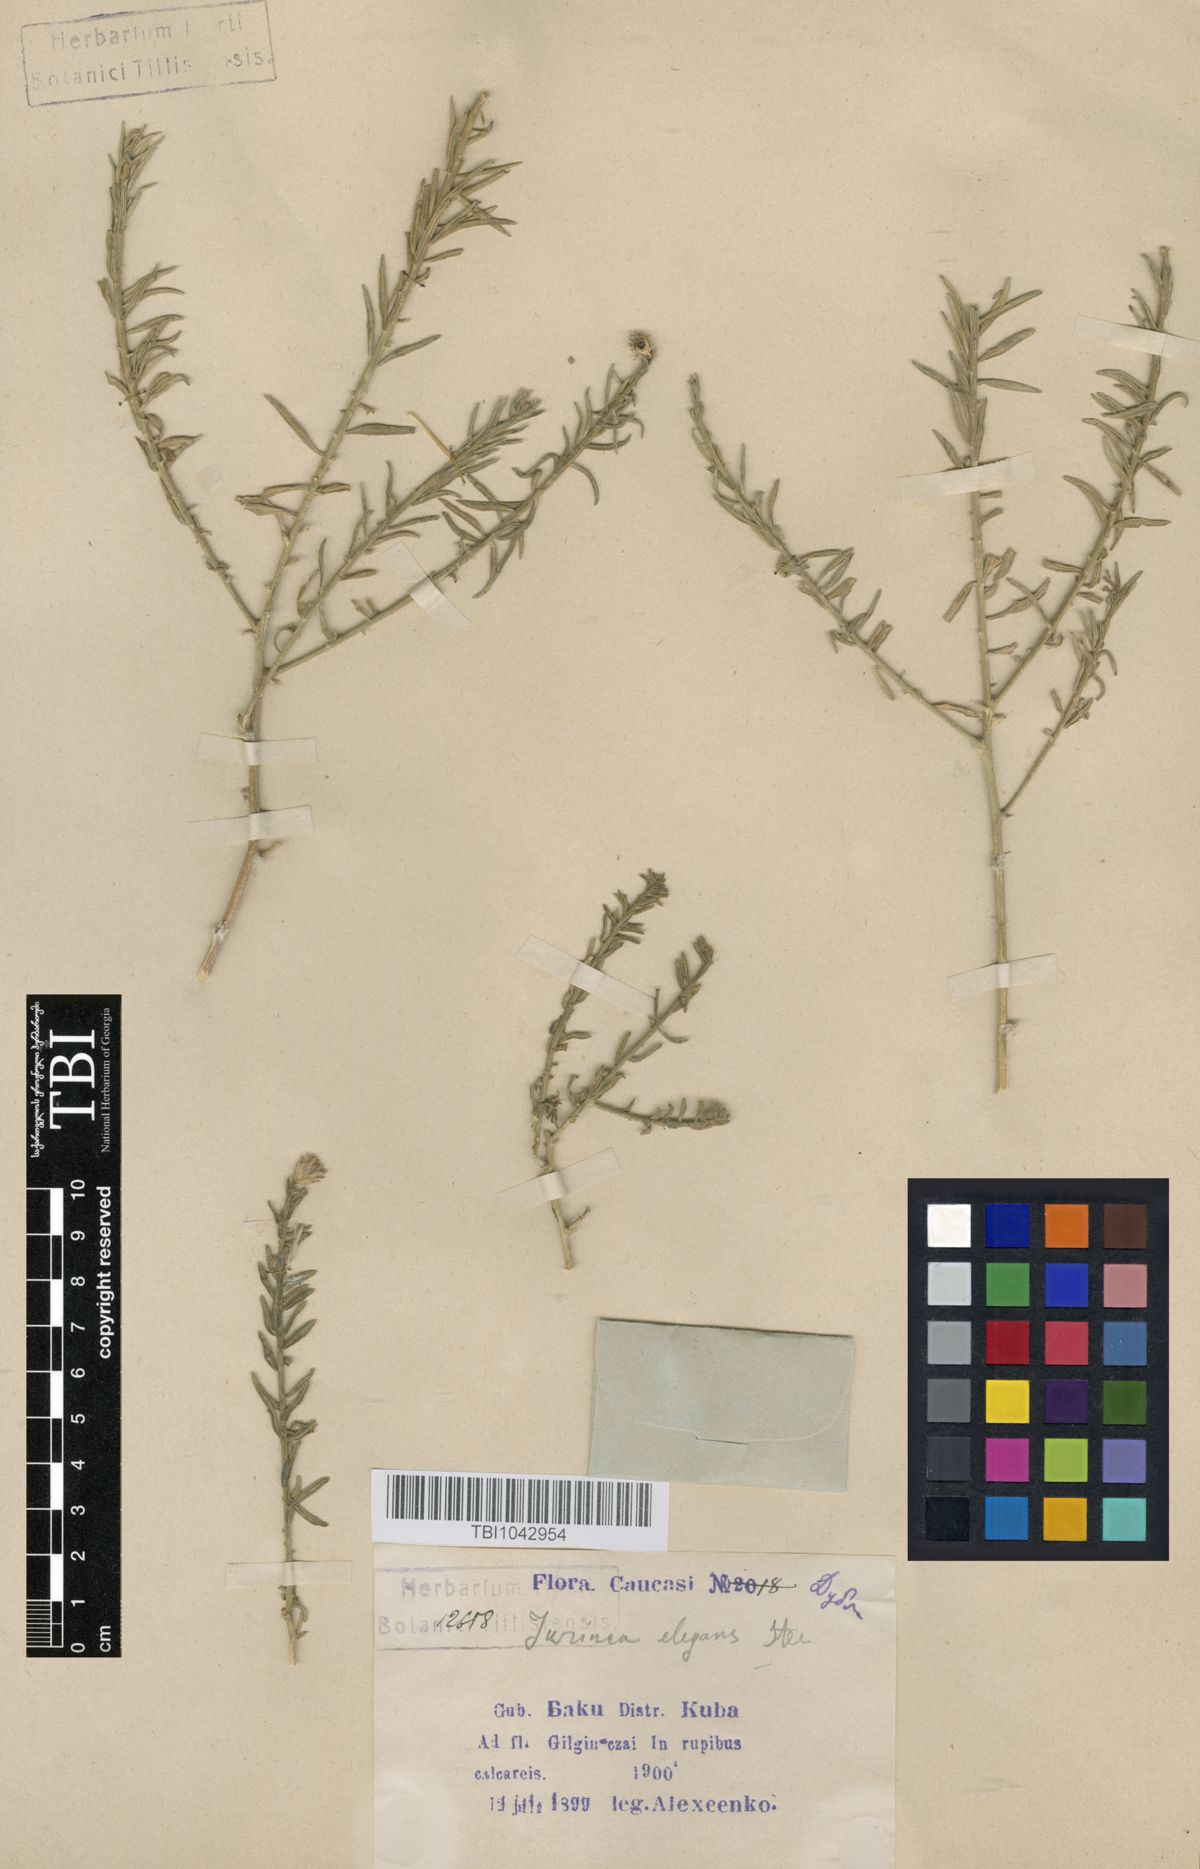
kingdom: Plantae
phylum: Tracheophyta
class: Magnoliopsida
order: Asterales
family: Asteraceae
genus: Jurinea
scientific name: Jurinea elegans
